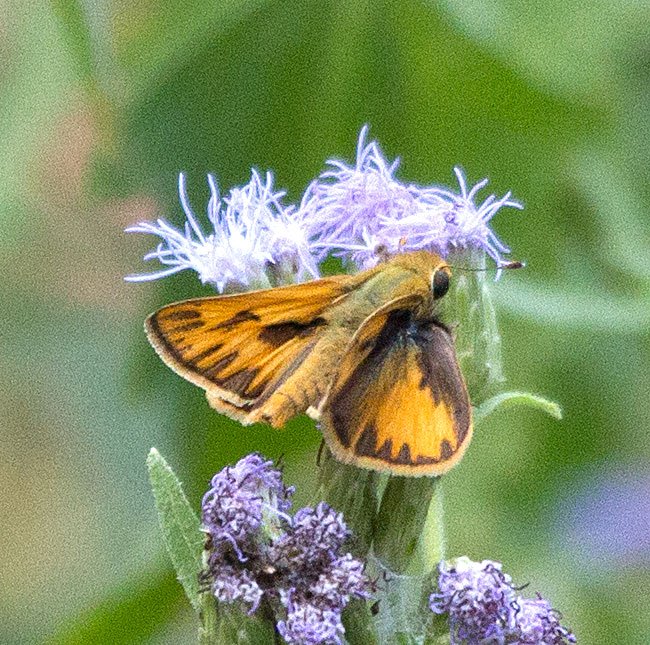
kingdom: Animalia
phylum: Arthropoda
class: Insecta
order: Lepidoptera
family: Hesperiidae
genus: Hylephila
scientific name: Hylephila phyleus
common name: Fiery Skipper
